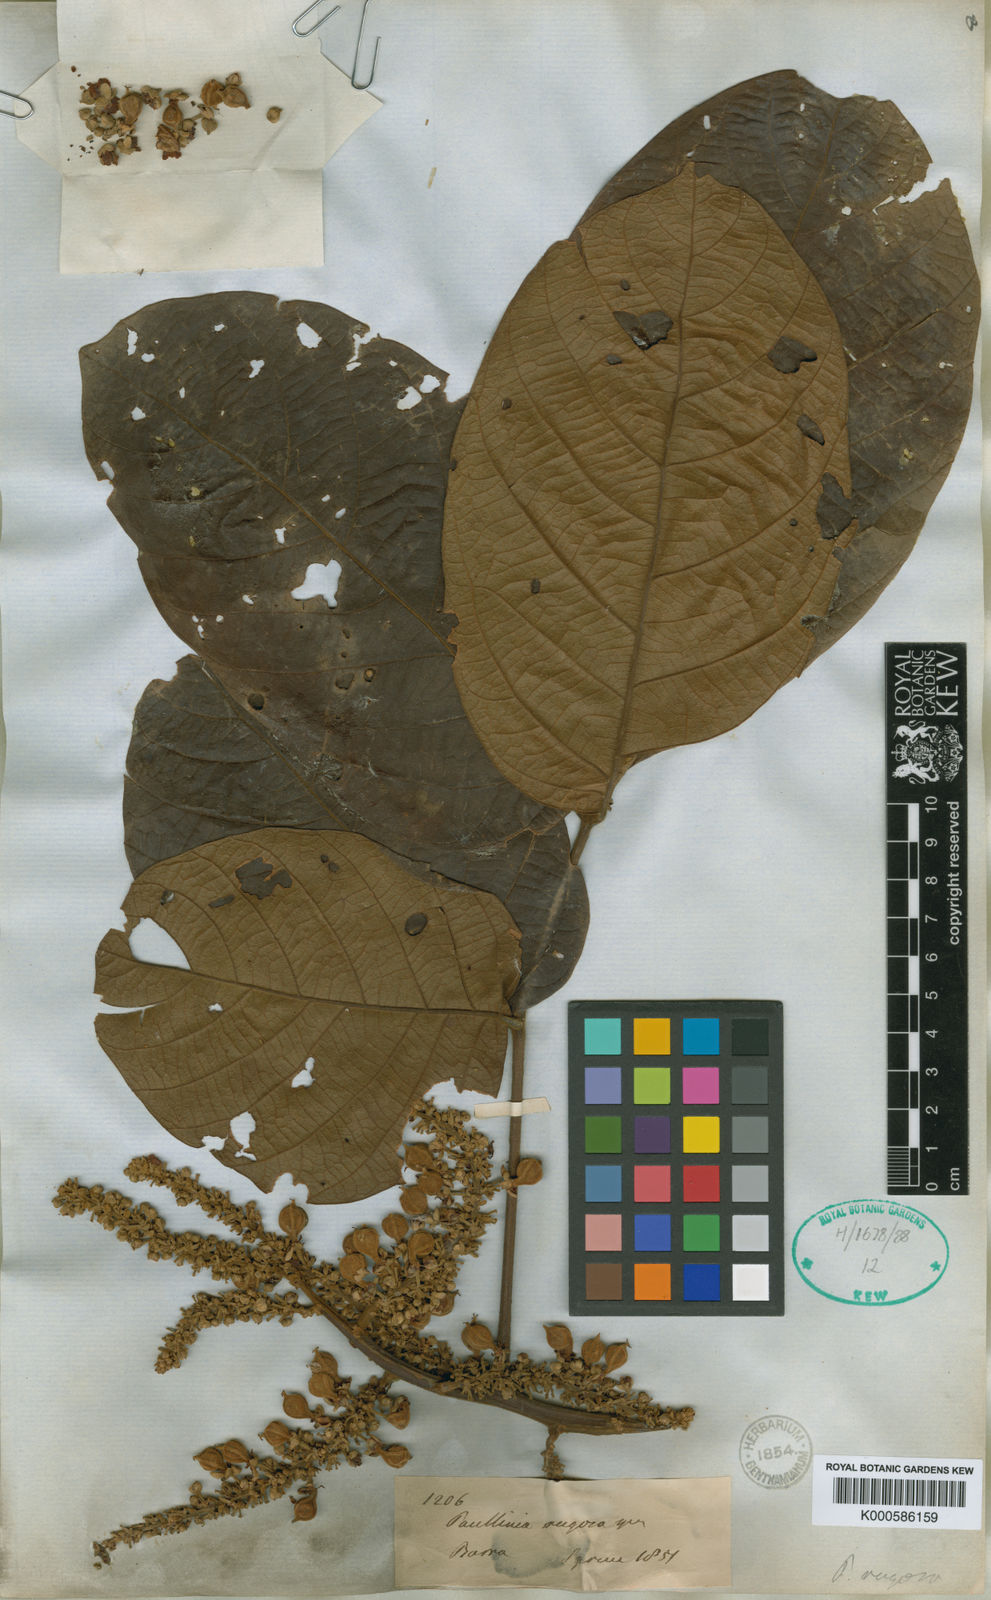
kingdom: Plantae
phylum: Tracheophyta
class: Magnoliopsida
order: Sapindales
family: Sapindaceae
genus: Paullinia
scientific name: Paullinia rugosa
